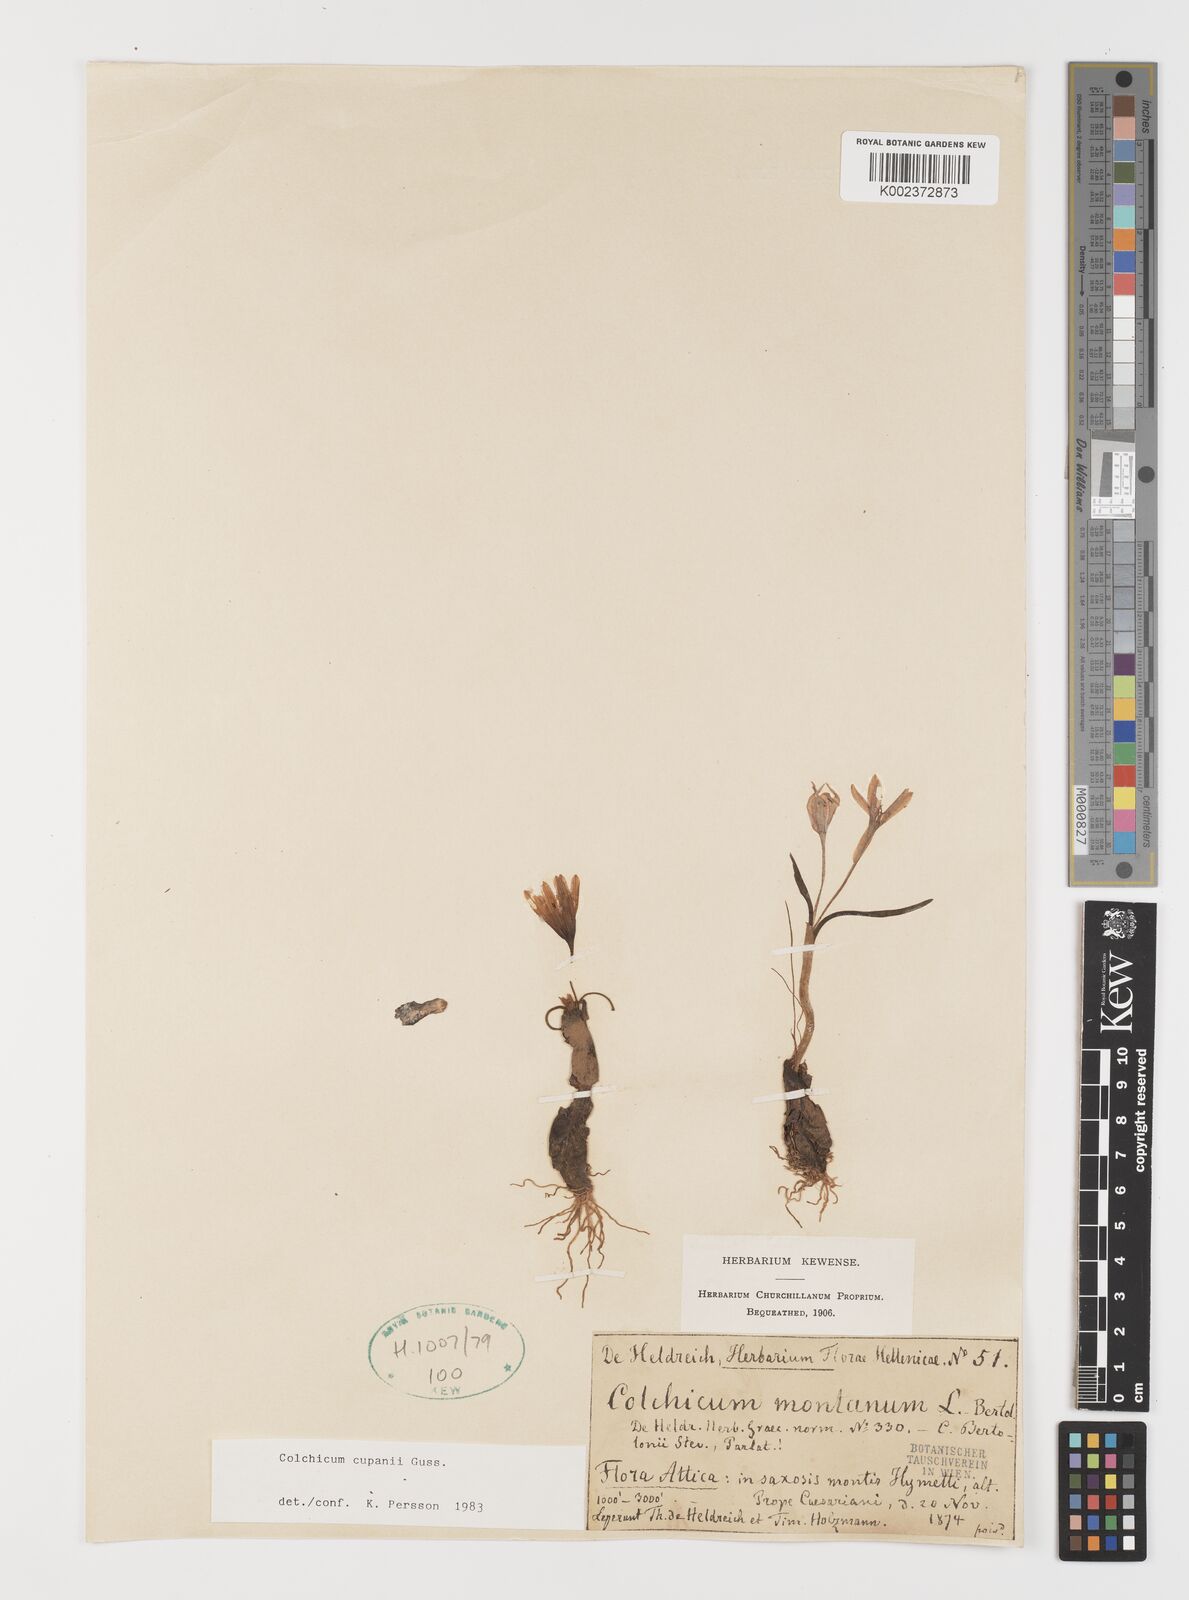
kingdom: Plantae
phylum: Tracheophyta
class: Liliopsida
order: Liliales
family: Colchicaceae
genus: Colchicum
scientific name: Colchicum cupanii
